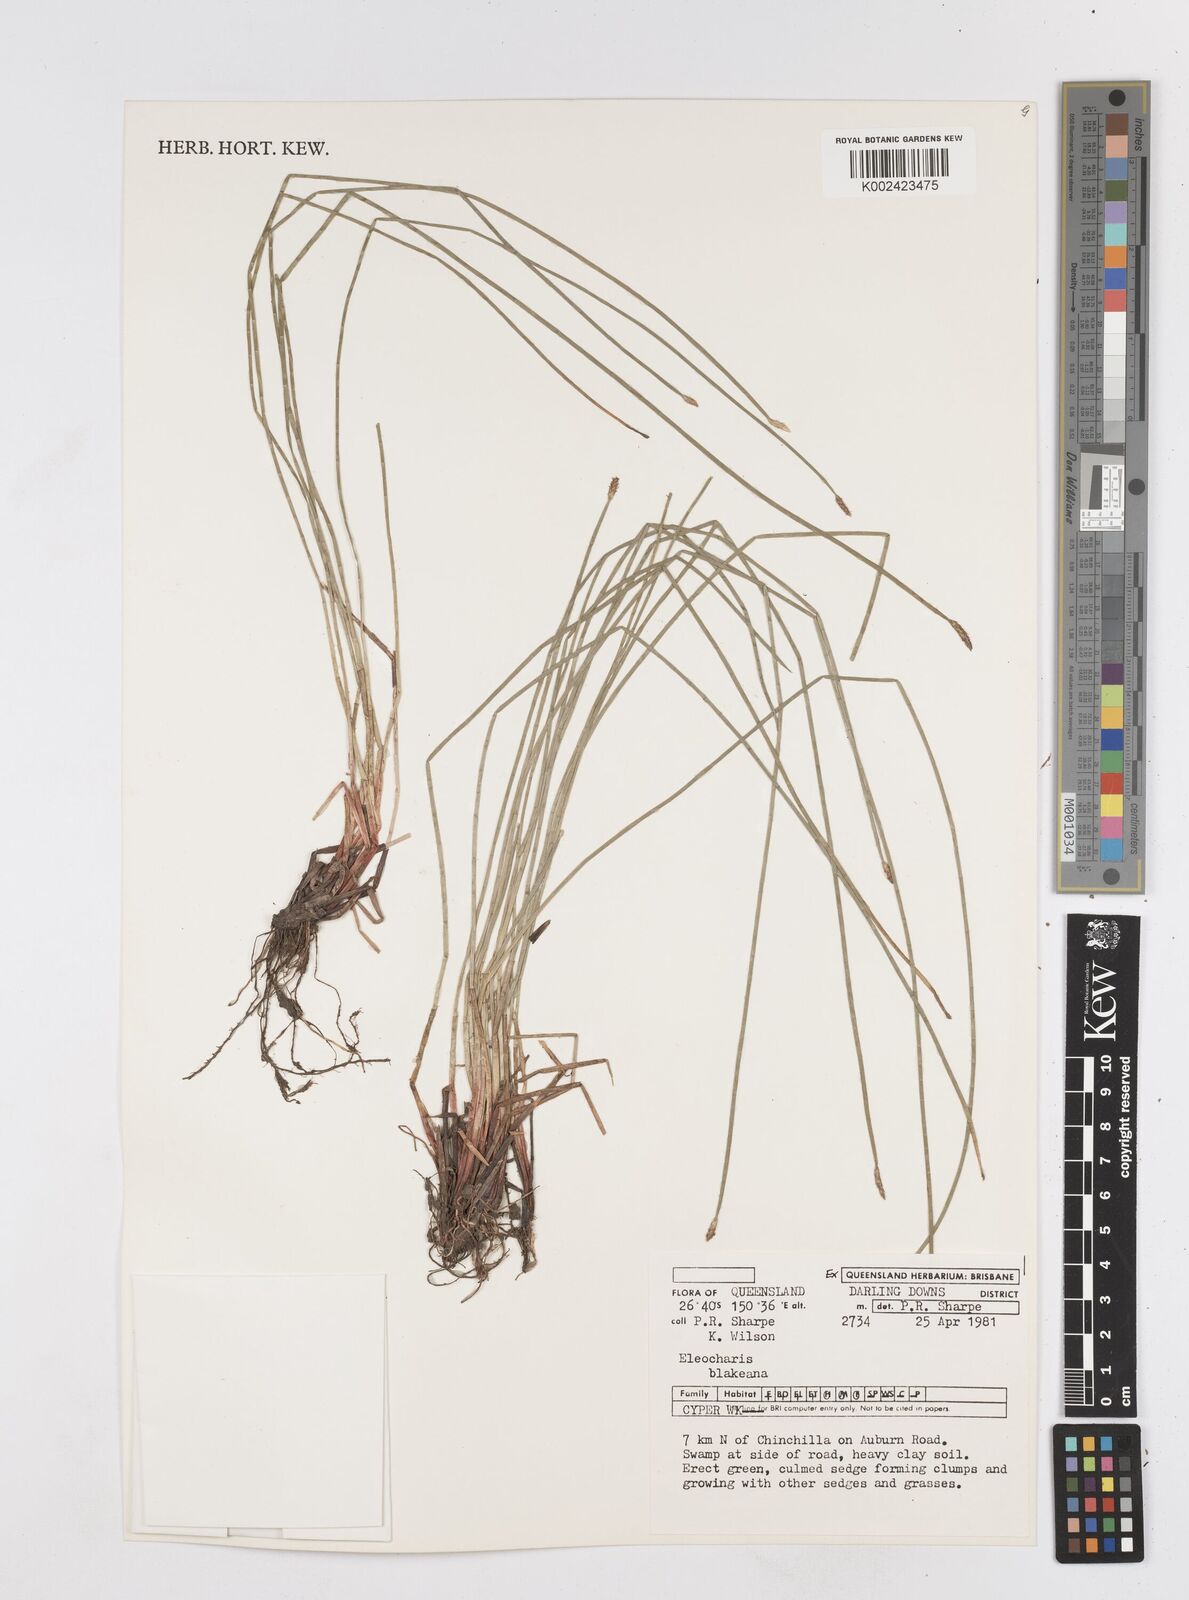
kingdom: Plantae
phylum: Tracheophyta
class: Liliopsida
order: Poales
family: Cyperaceae
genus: Eleocharis
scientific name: Eleocharis blakeana
